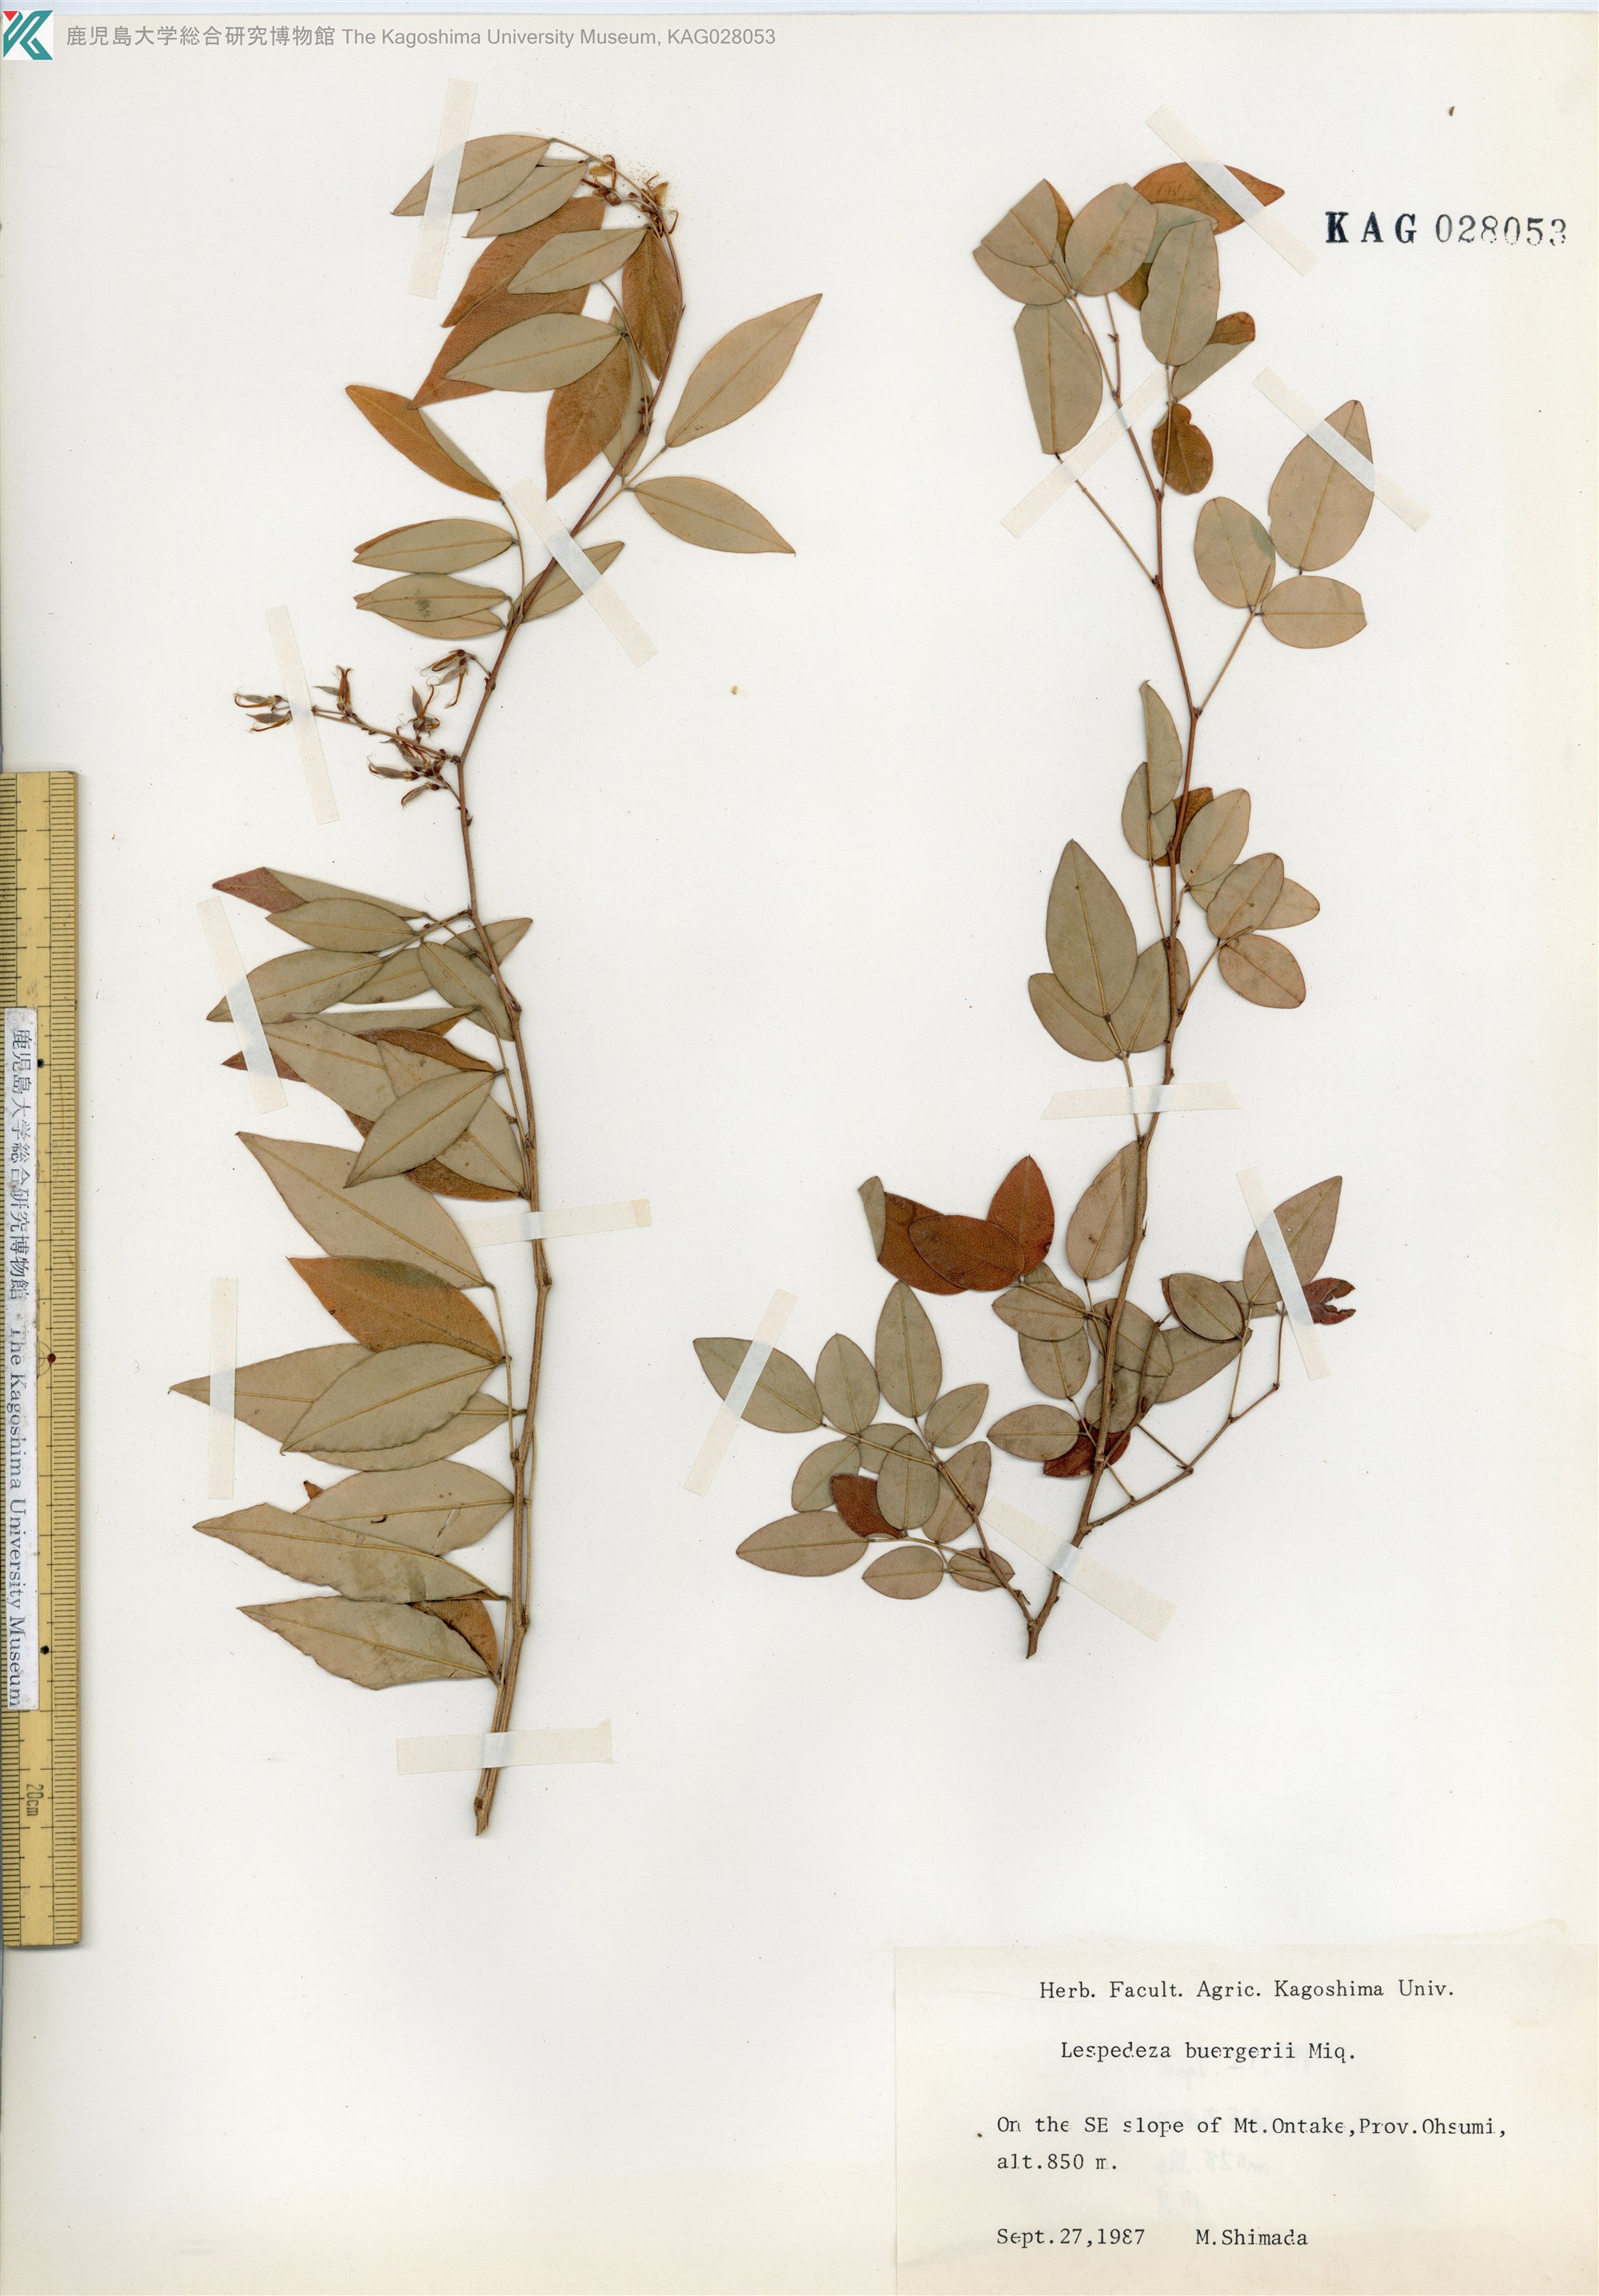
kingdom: Plantae
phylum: Tracheophyta
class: Magnoliopsida
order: Fabales
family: Fabaceae
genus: Lespedeza
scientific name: Lespedeza buergeri
